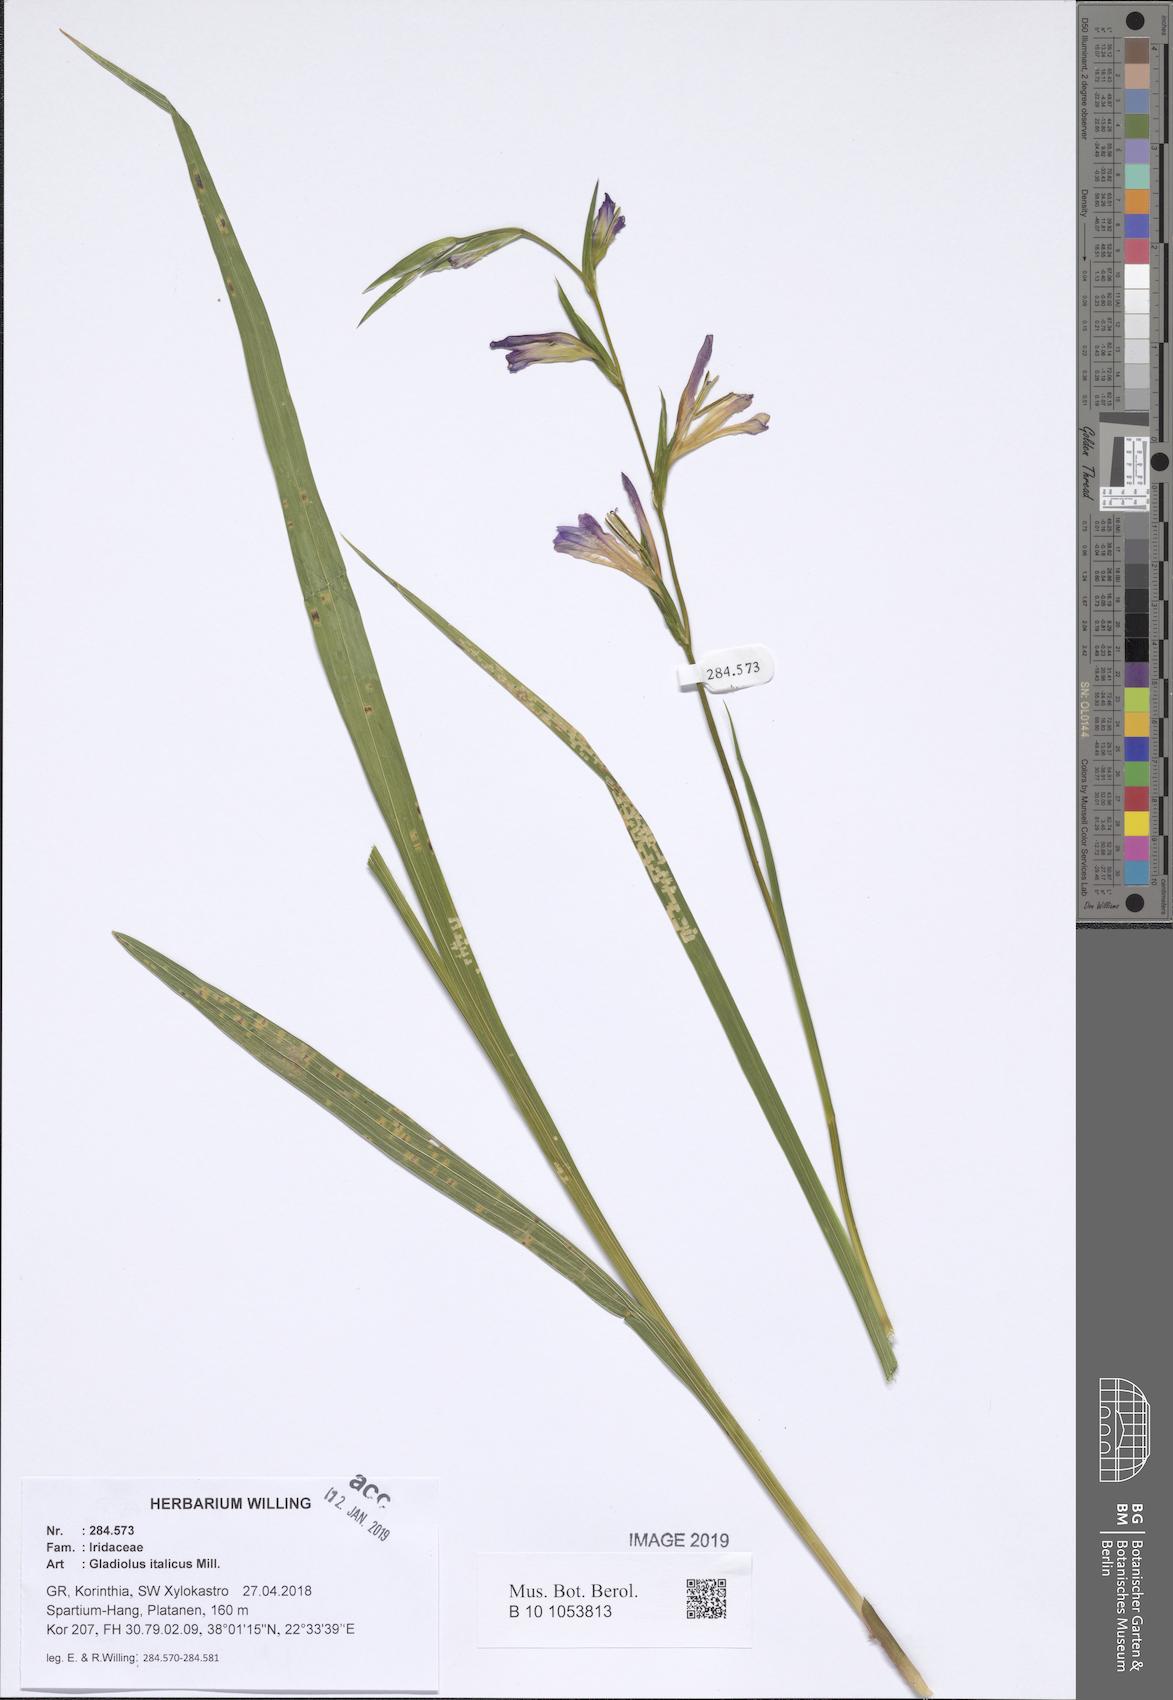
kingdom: Plantae
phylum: Tracheophyta
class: Liliopsida
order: Asparagales
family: Iridaceae
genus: Gladiolus
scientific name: Gladiolus italicus
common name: Field gladiolus
